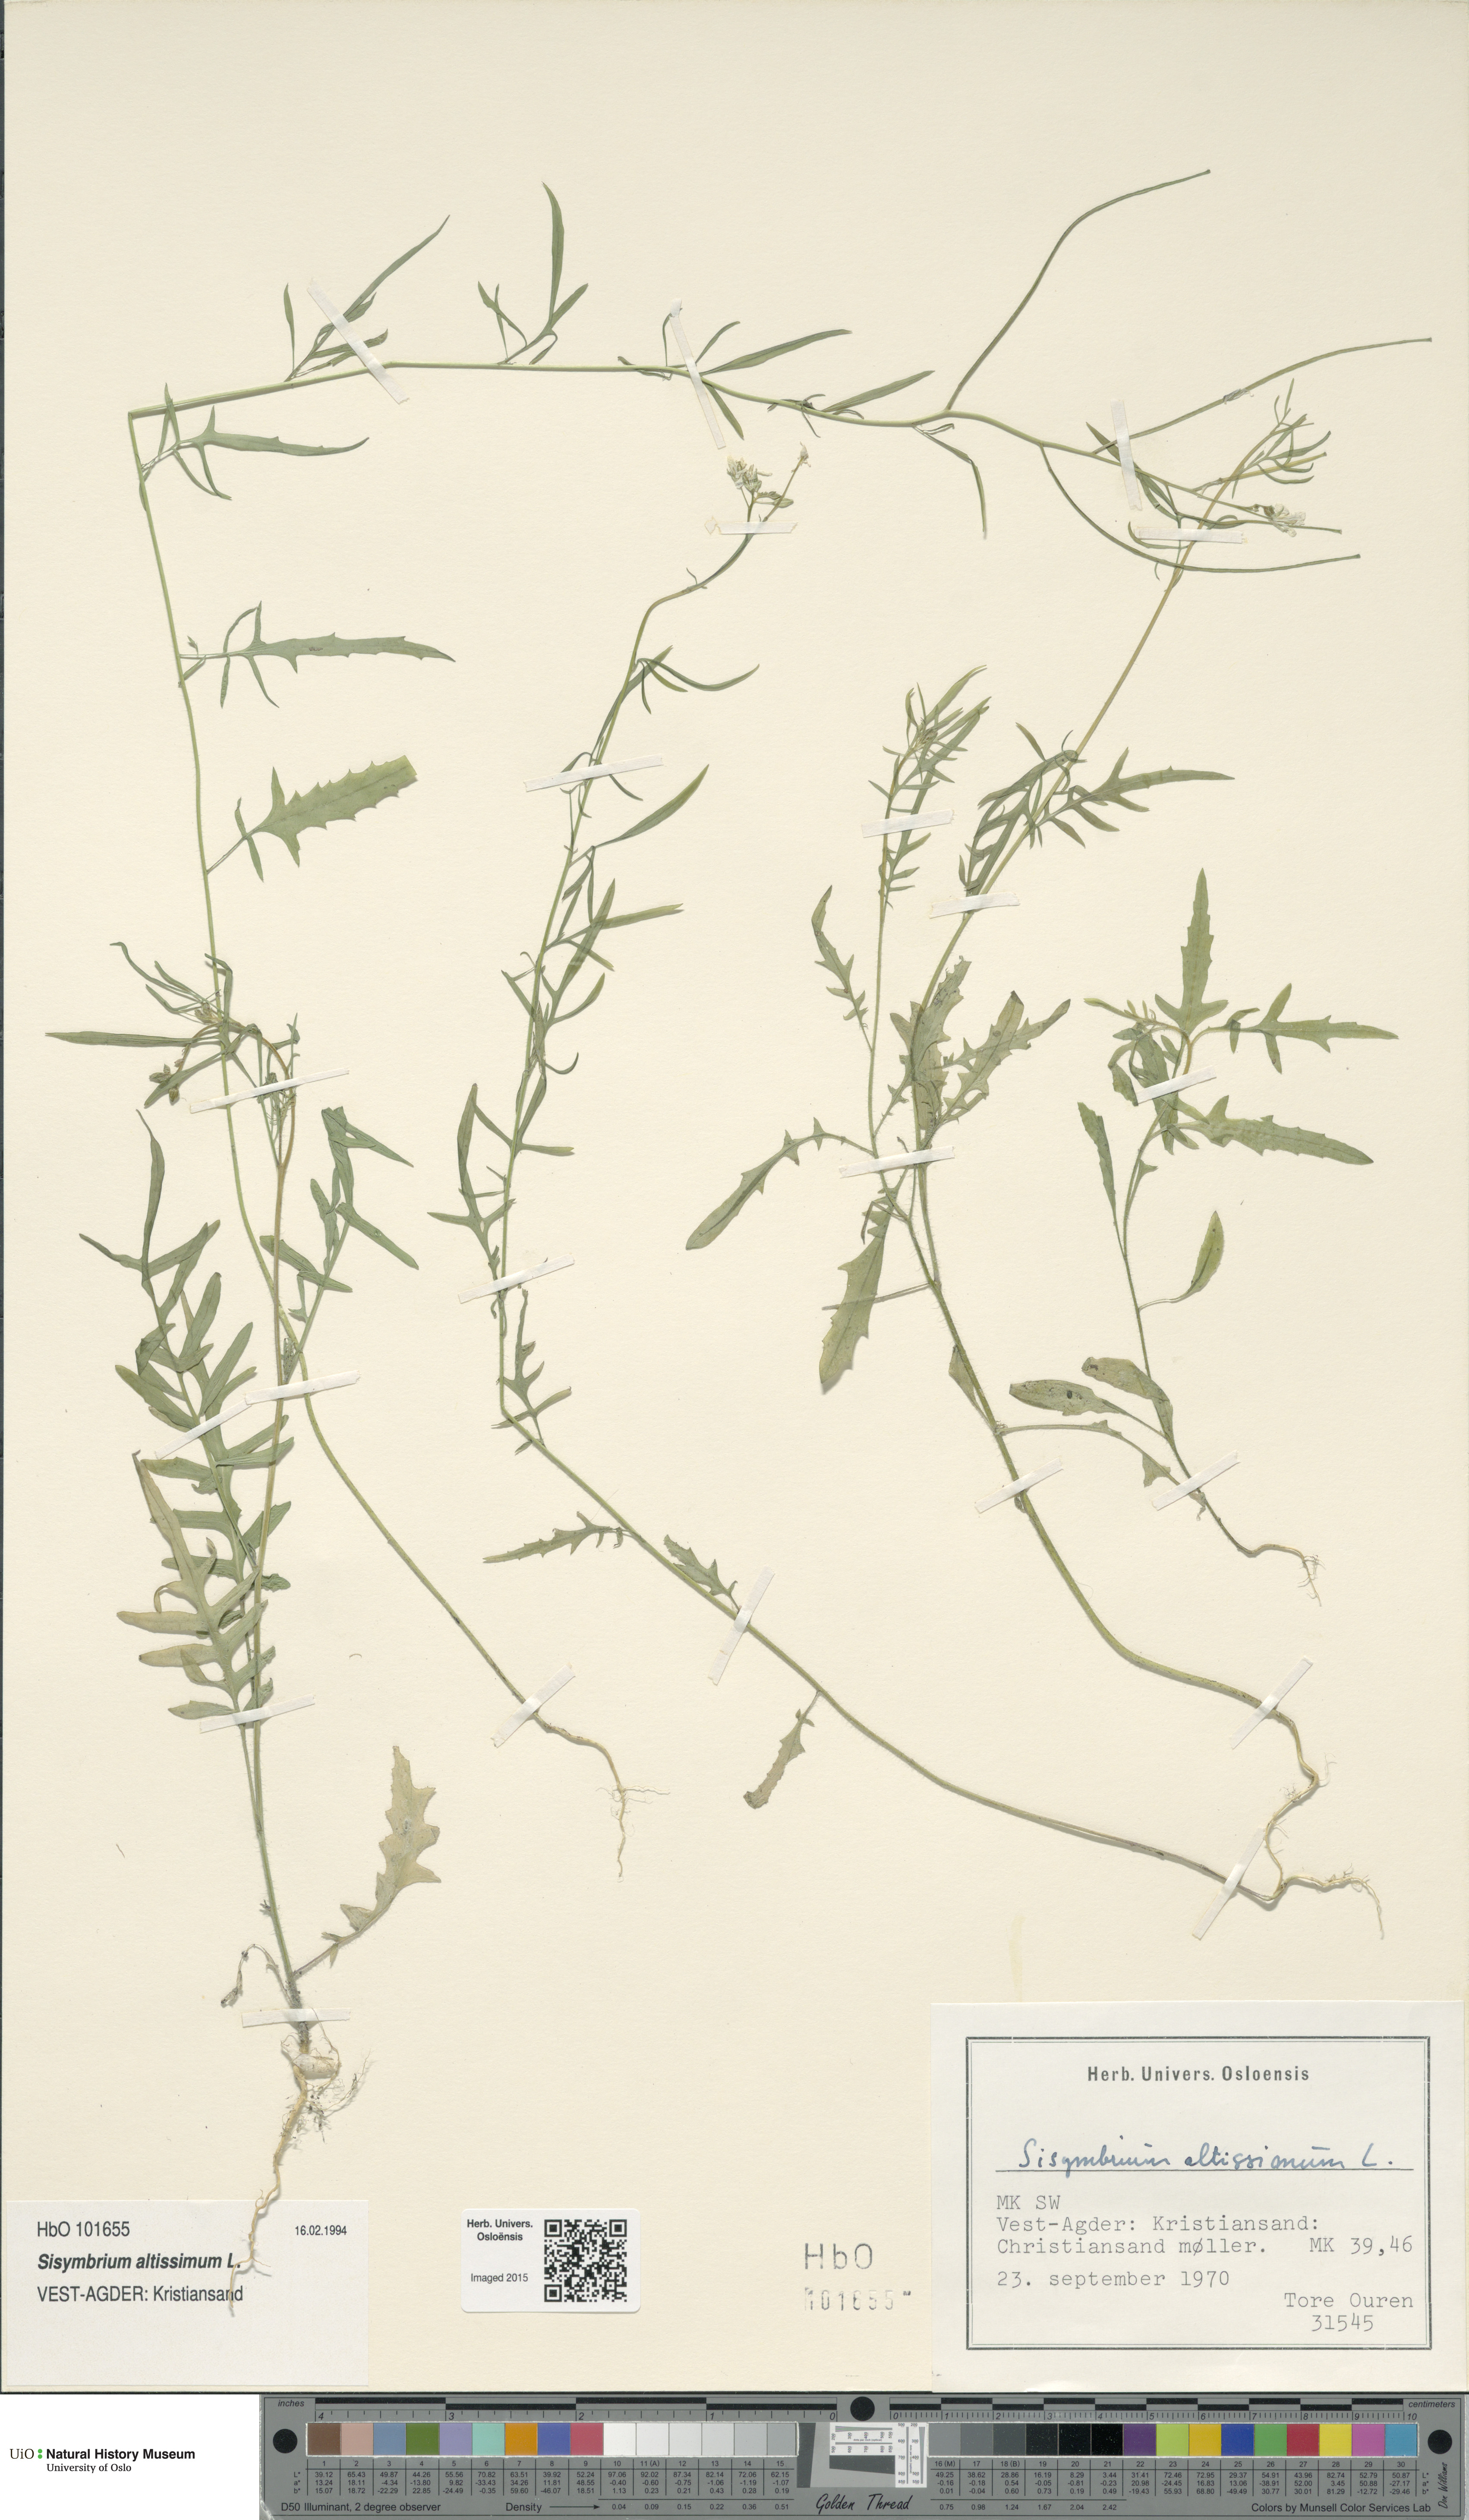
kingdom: Plantae
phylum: Tracheophyta
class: Magnoliopsida
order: Brassicales
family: Brassicaceae
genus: Sisymbrium
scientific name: Sisymbrium altissimum
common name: Tall rocket
